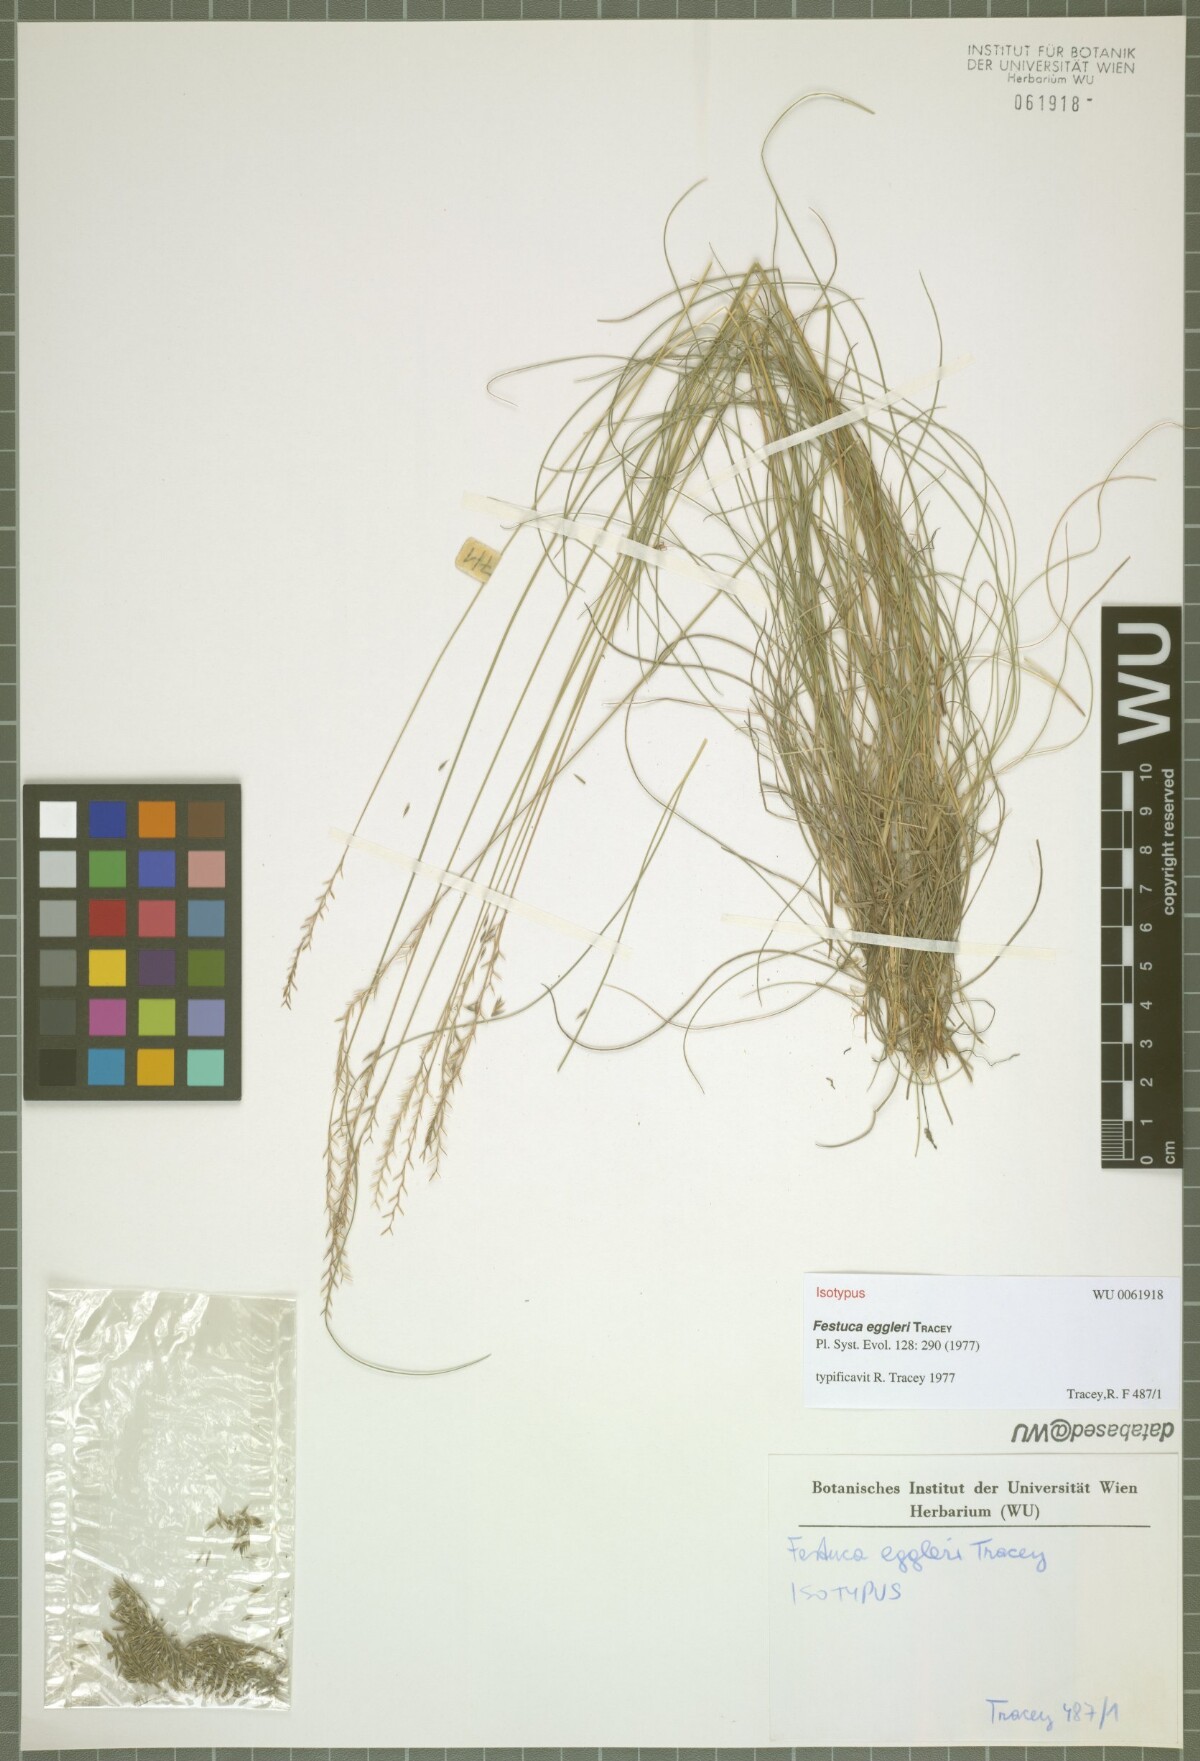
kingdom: Plantae
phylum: Tracheophyta
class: Liliopsida
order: Poales
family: Poaceae
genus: Festuca
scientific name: Festuca eggleri
